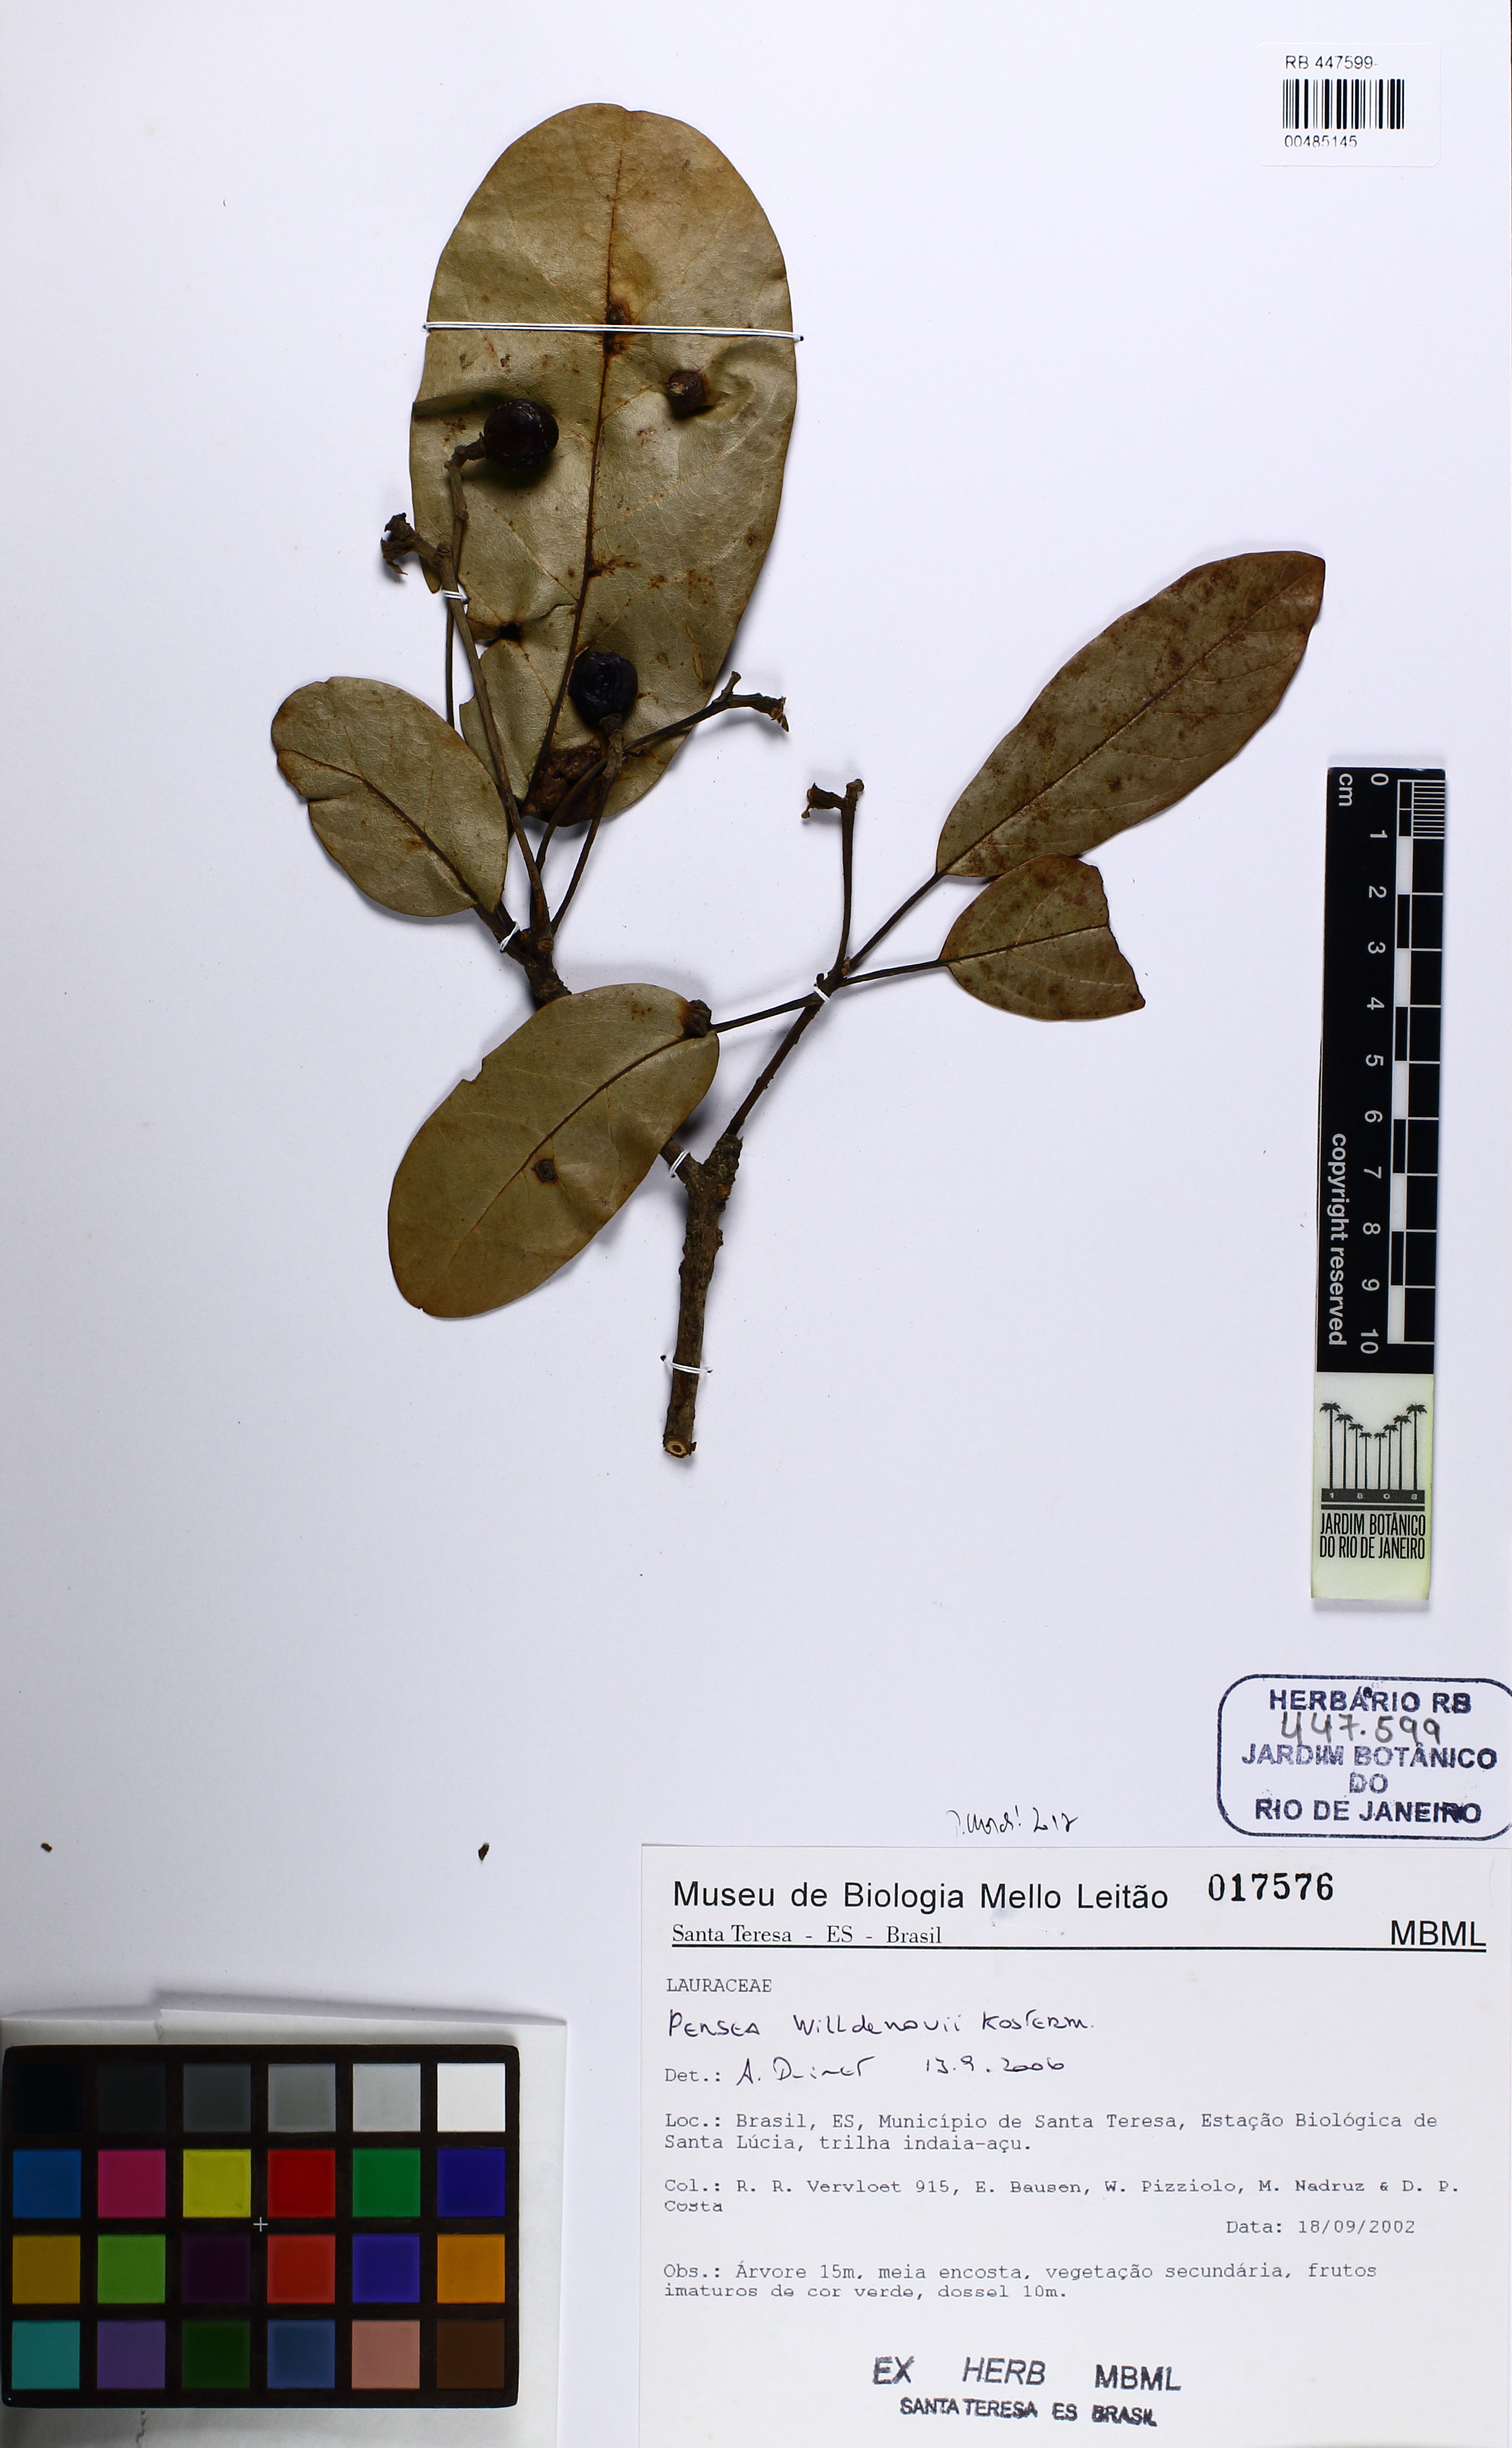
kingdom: Plantae
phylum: Tracheophyta
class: Magnoliopsida
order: Laurales
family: Lauraceae
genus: Persea
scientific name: Persea willdenovii
